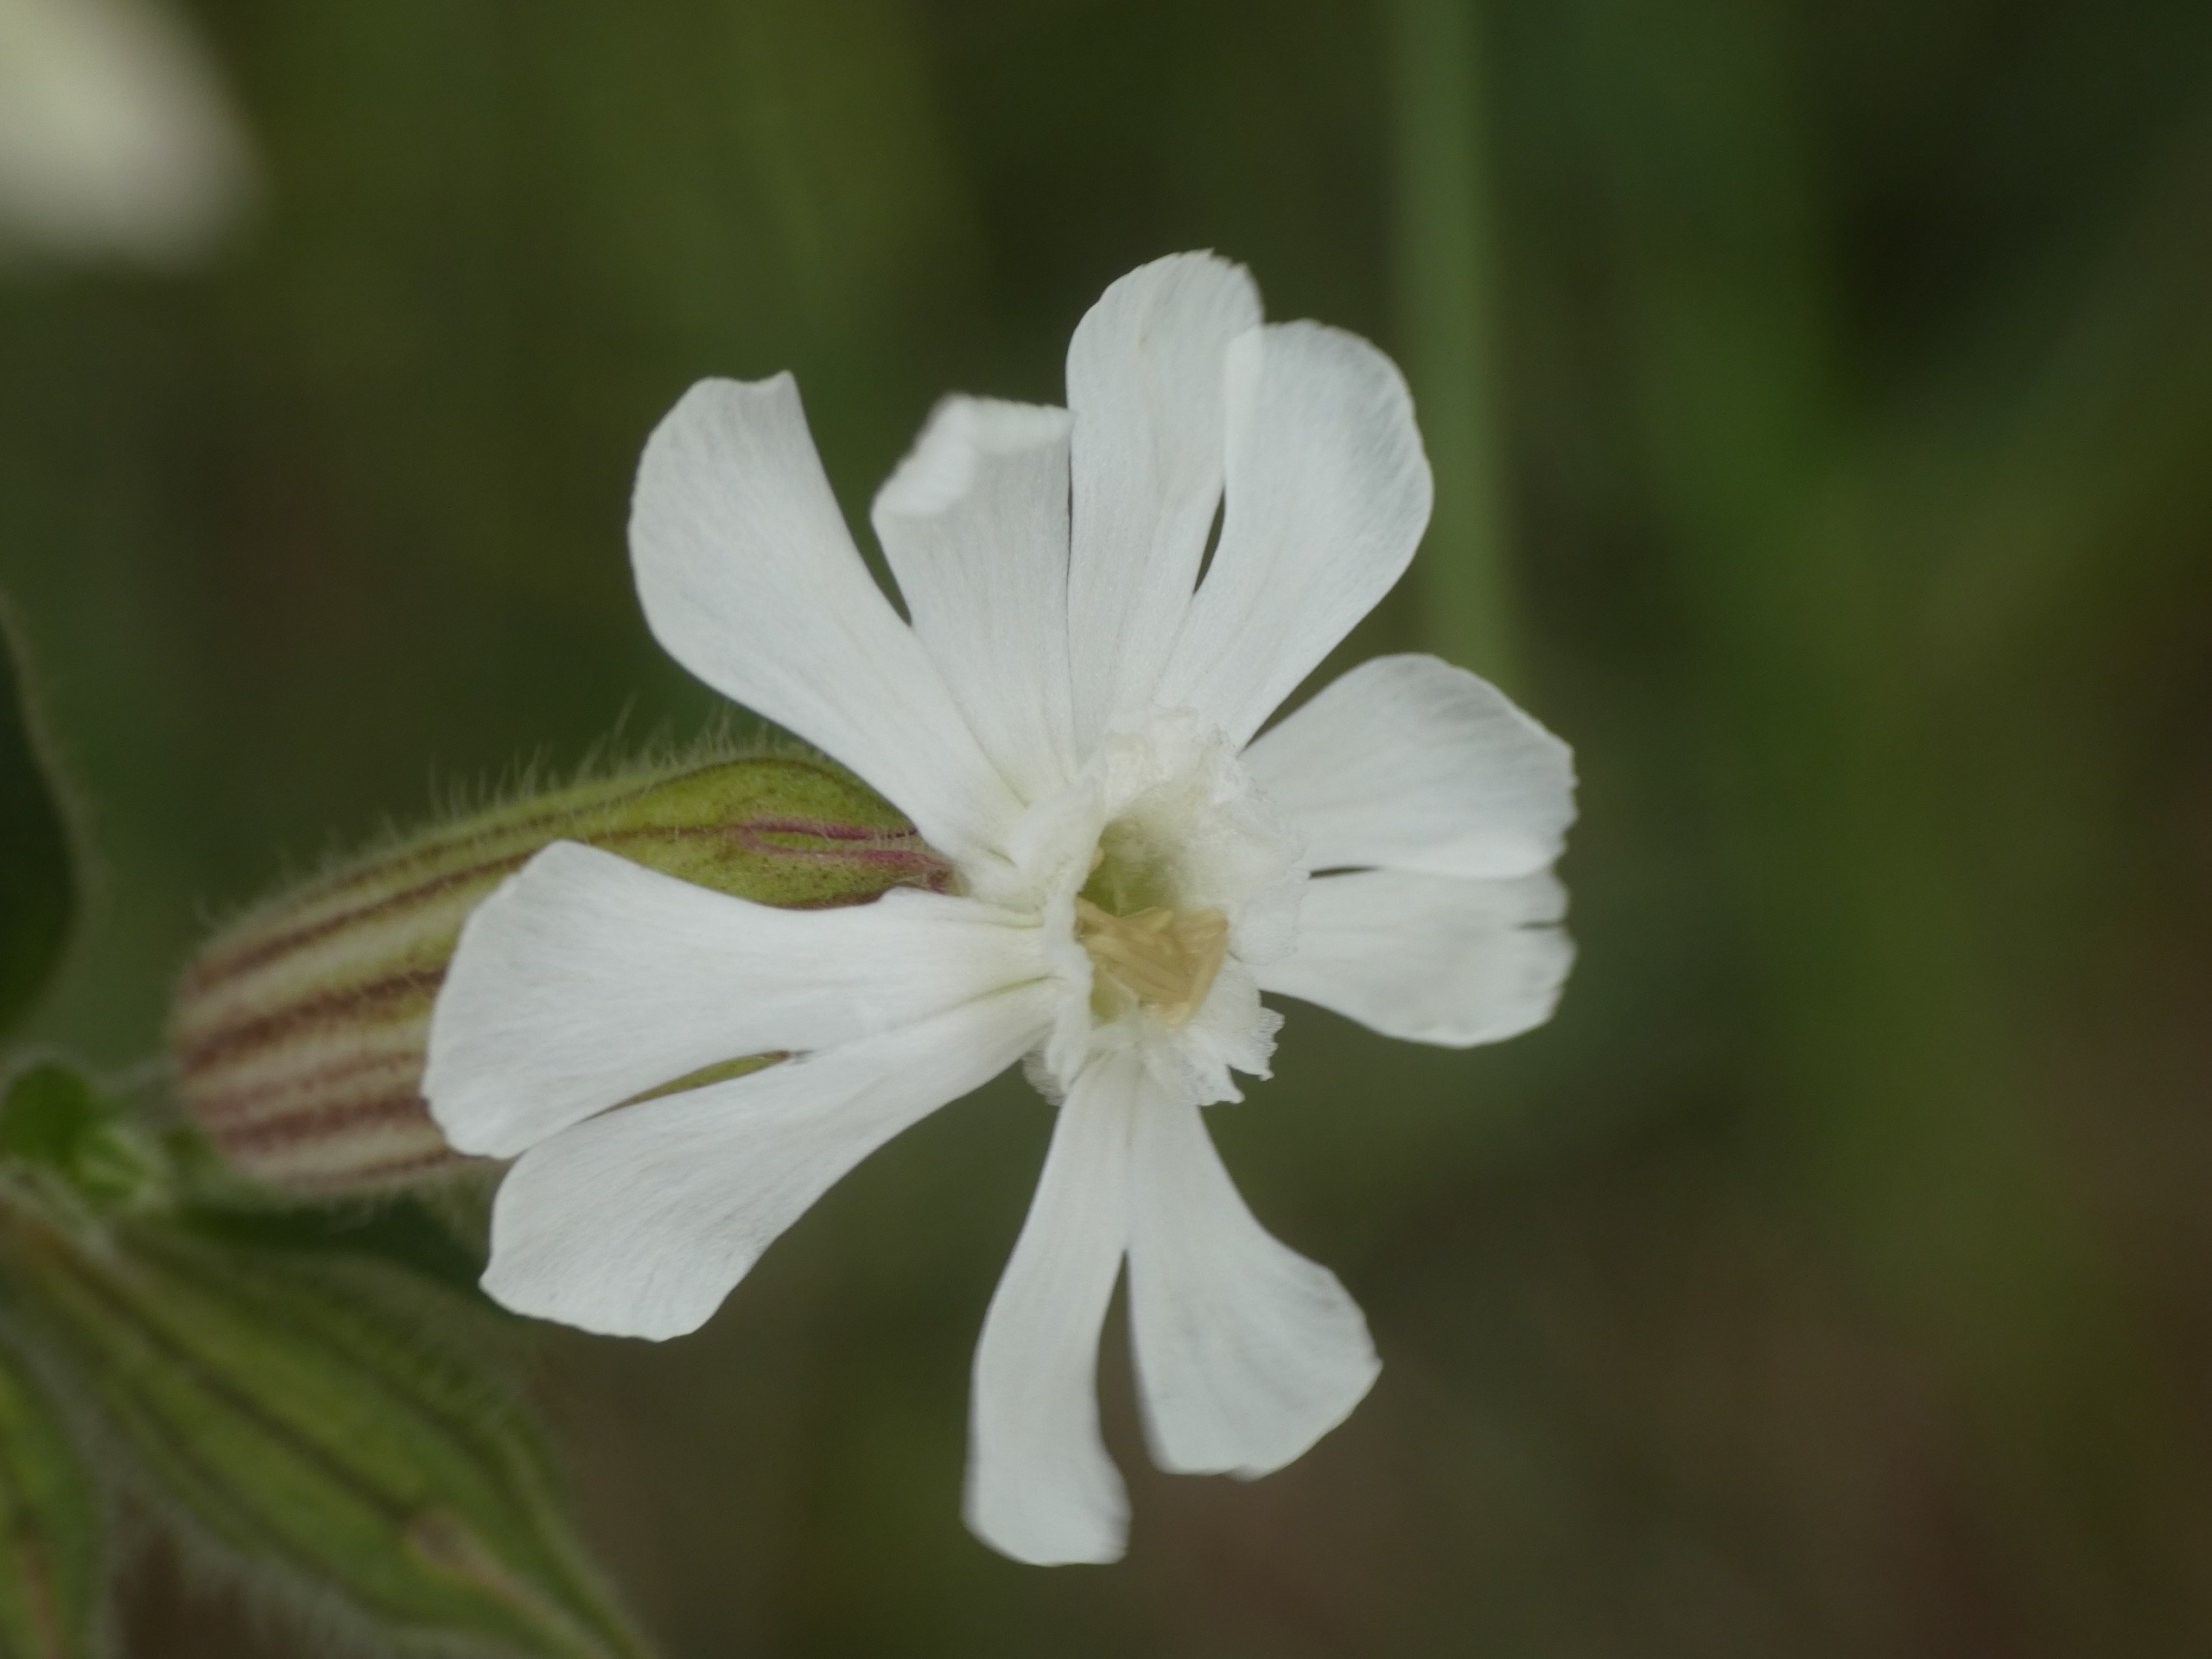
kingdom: Plantae
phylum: Tracheophyta
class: Magnoliopsida
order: Caryophyllales
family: Caryophyllaceae
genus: Silene
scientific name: Silene latifolia
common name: Aftenpragtstjerne
